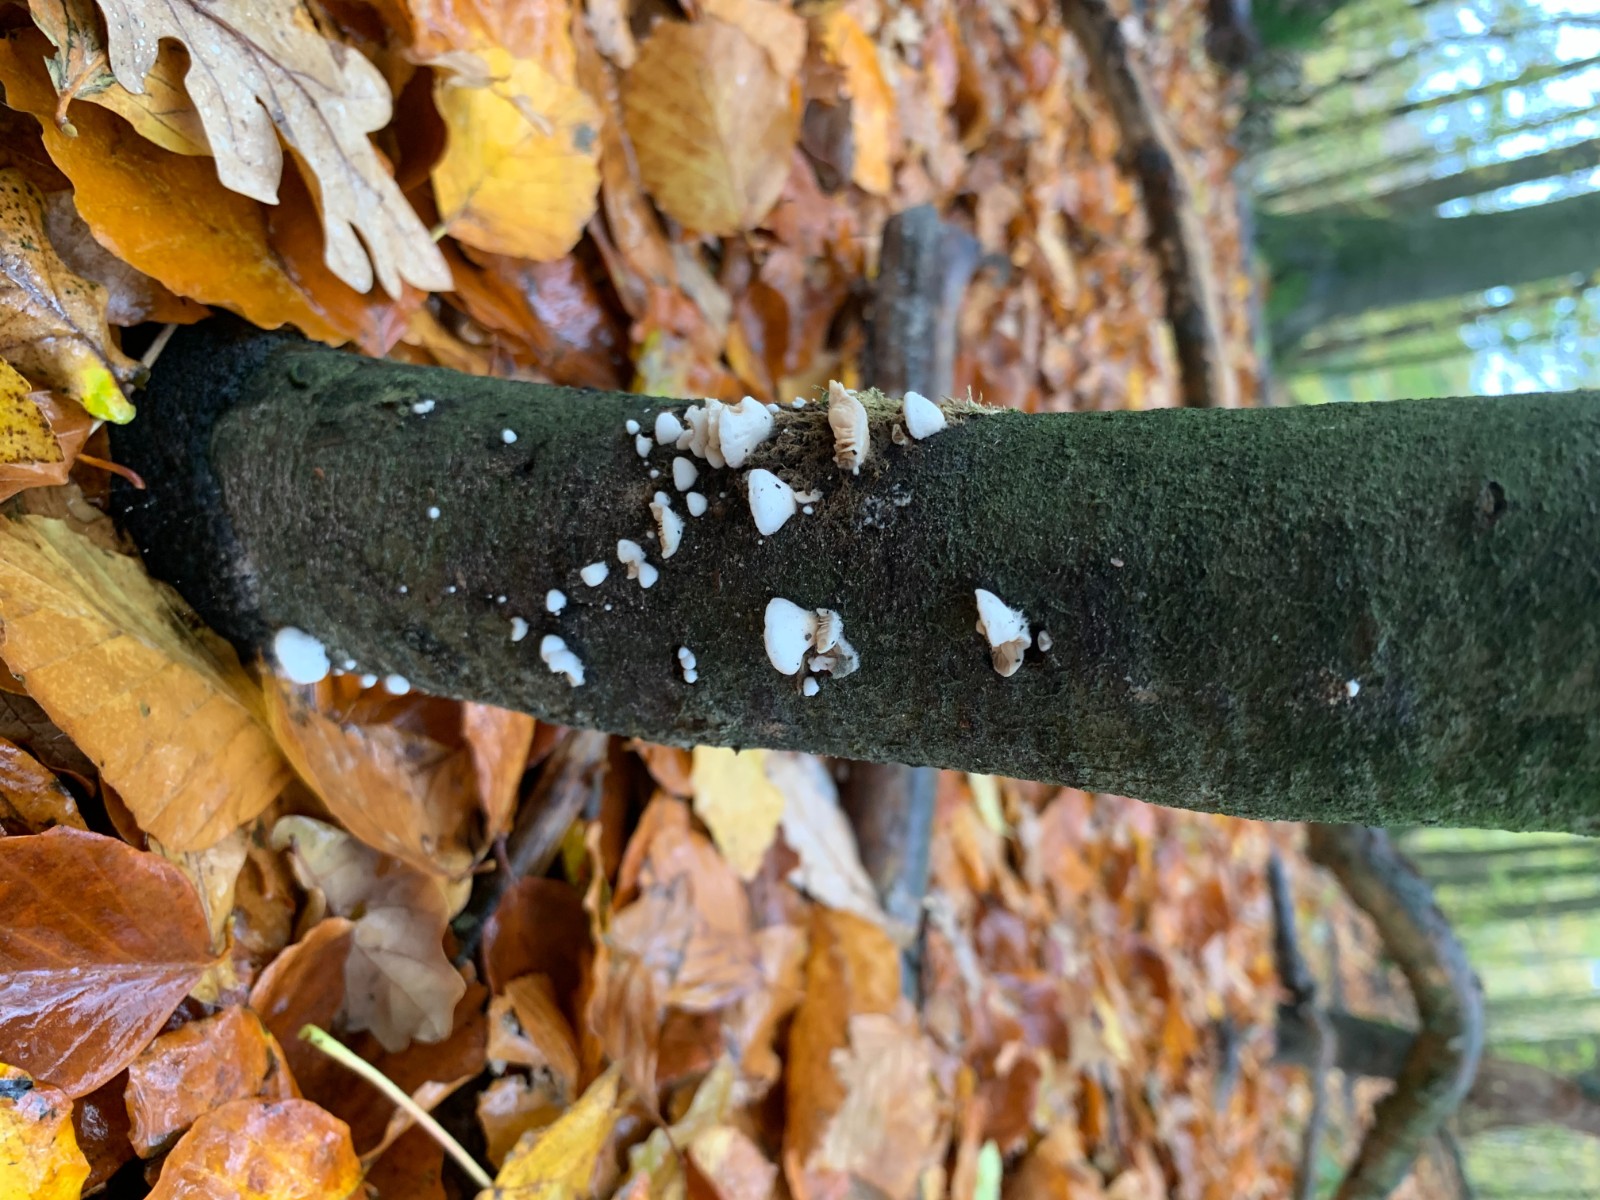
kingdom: Fungi
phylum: Basidiomycota
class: Agaricomycetes
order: Agaricales
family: Crepidotaceae
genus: Crepidotus
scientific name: Crepidotus
